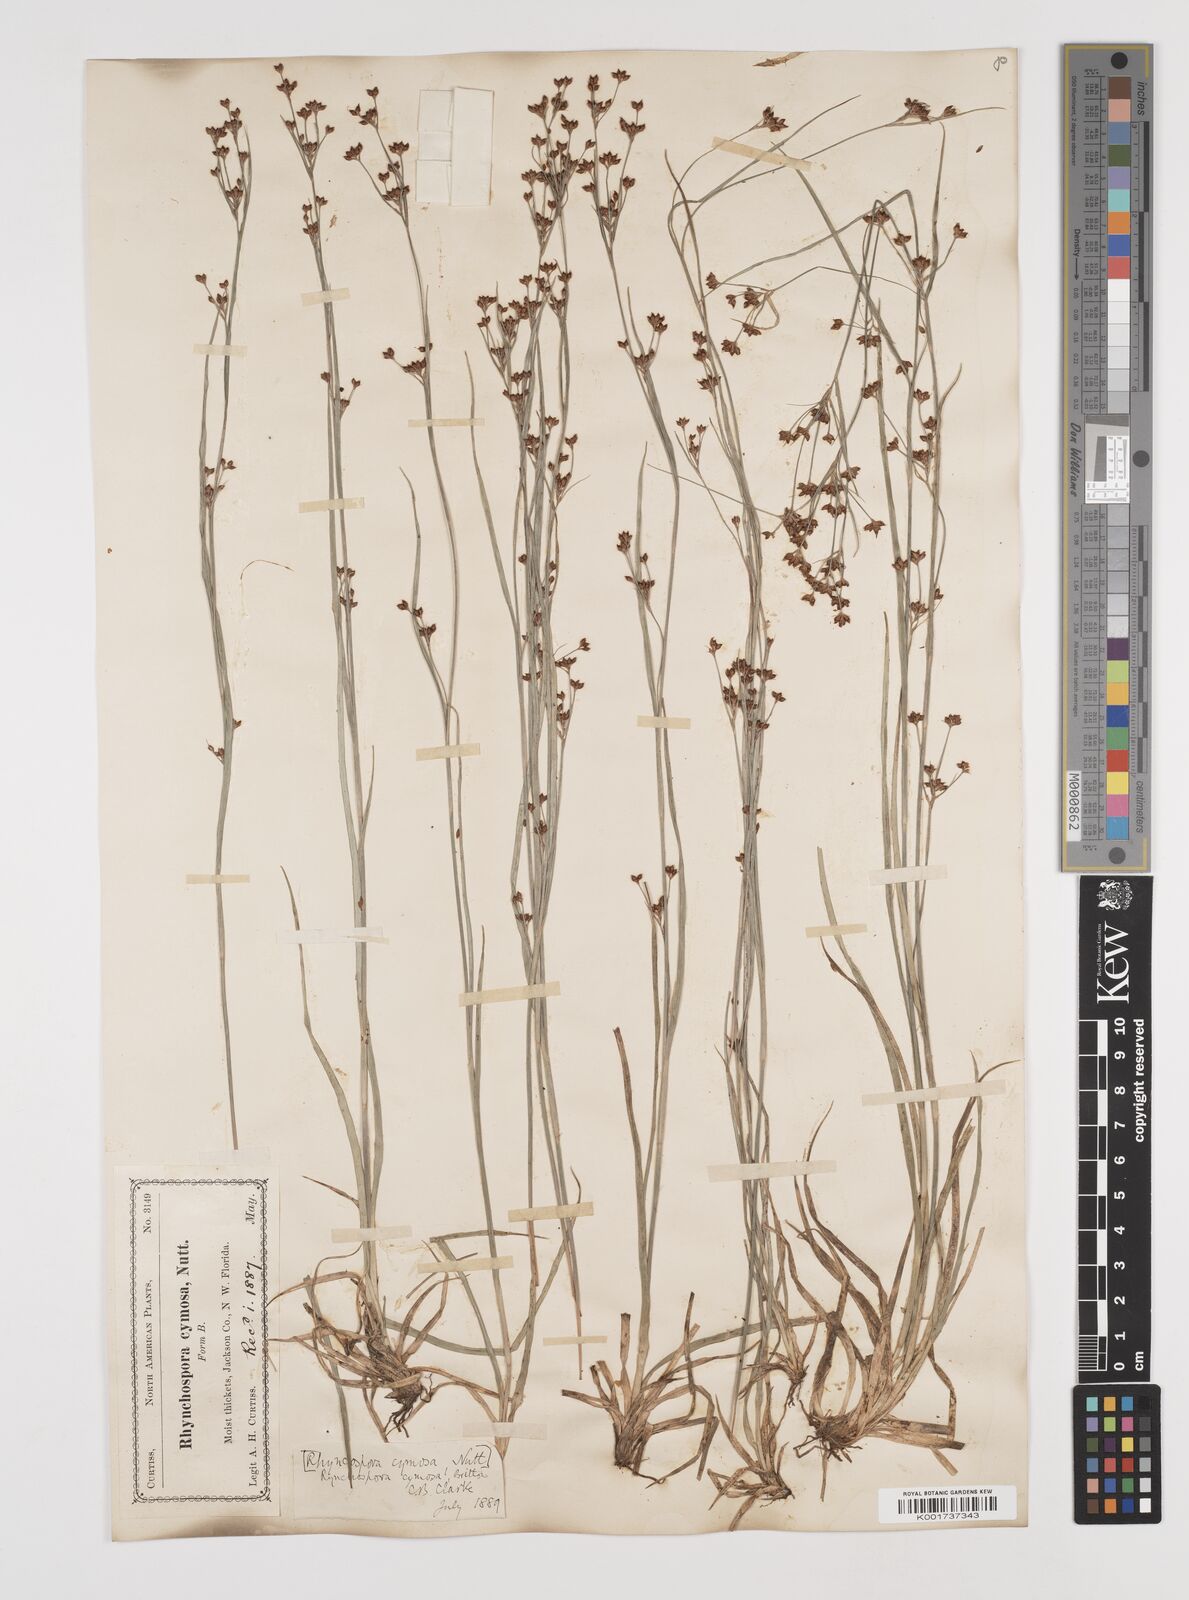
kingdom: Plantae
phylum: Tracheophyta
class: Liliopsida
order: Poales
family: Cyperaceae
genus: Scirpus
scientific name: Scirpus polyphyllus
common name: Leafy bulrush
